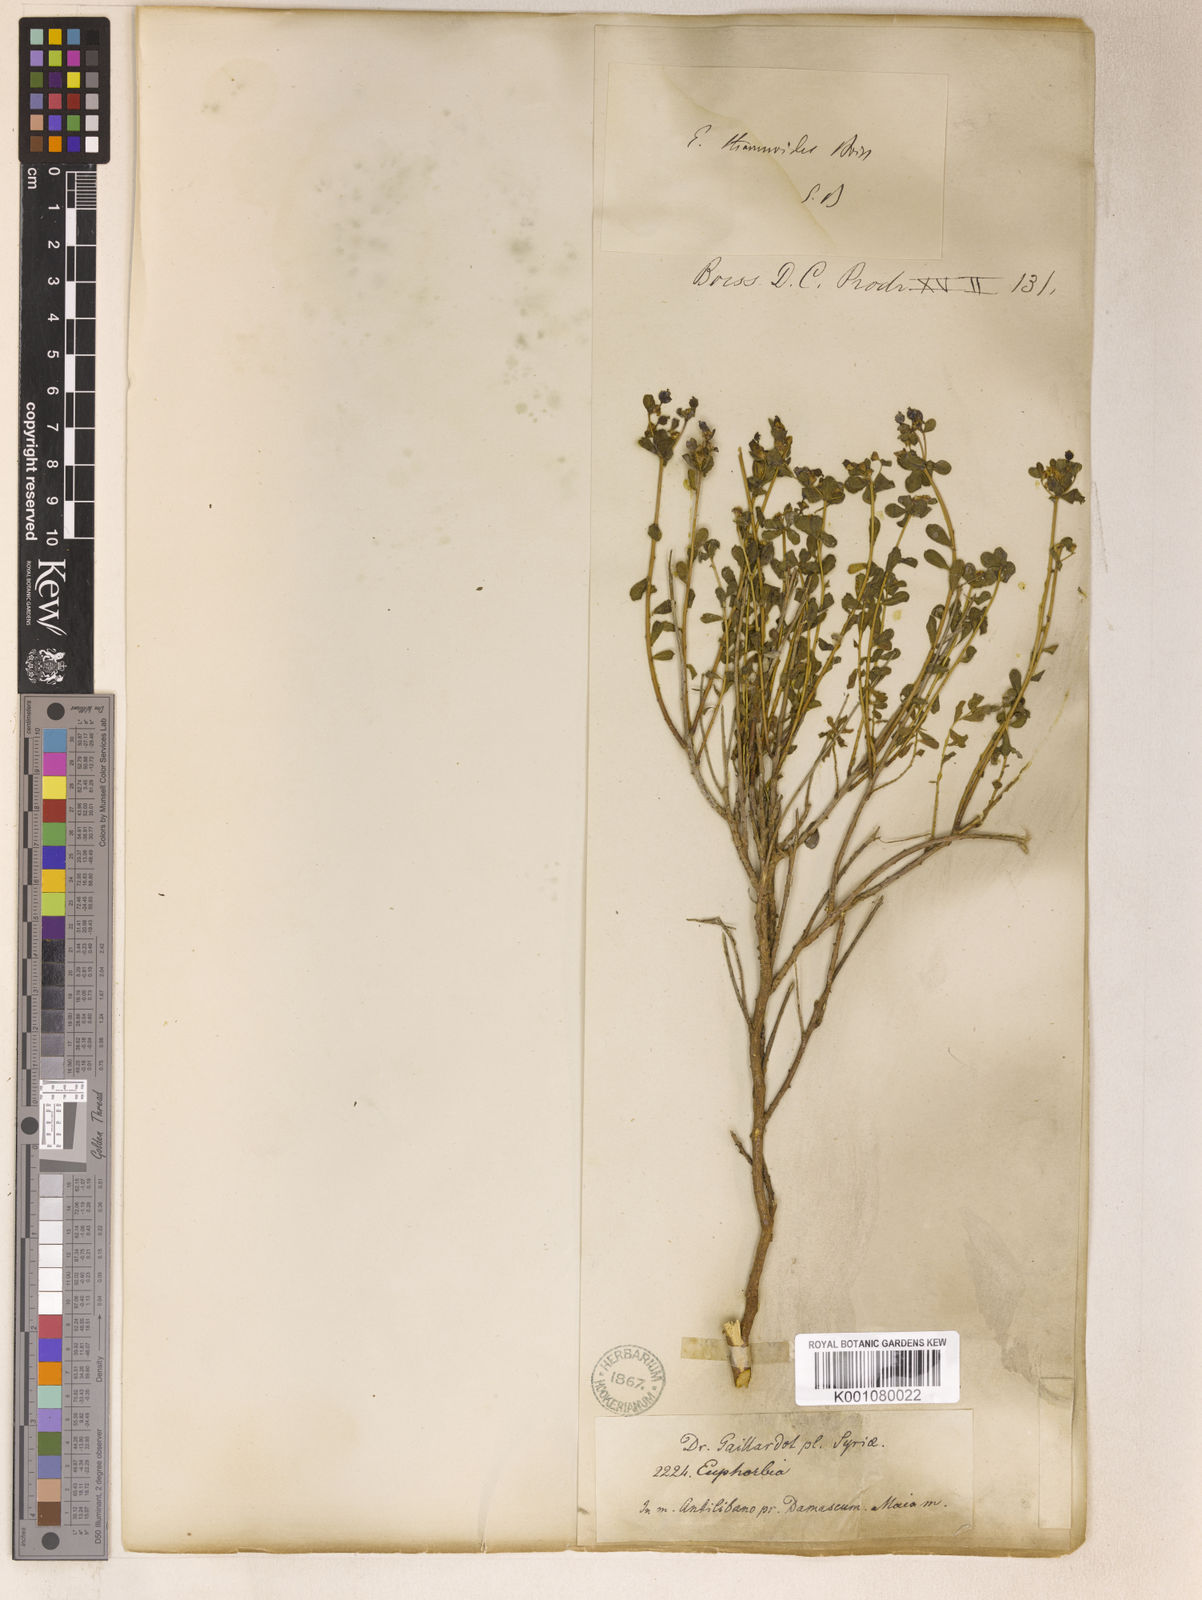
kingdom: Plantae
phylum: Tracheophyta
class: Magnoliopsida
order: Malpighiales
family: Euphorbiaceae
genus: Euphorbia
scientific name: Euphorbia bivonae
